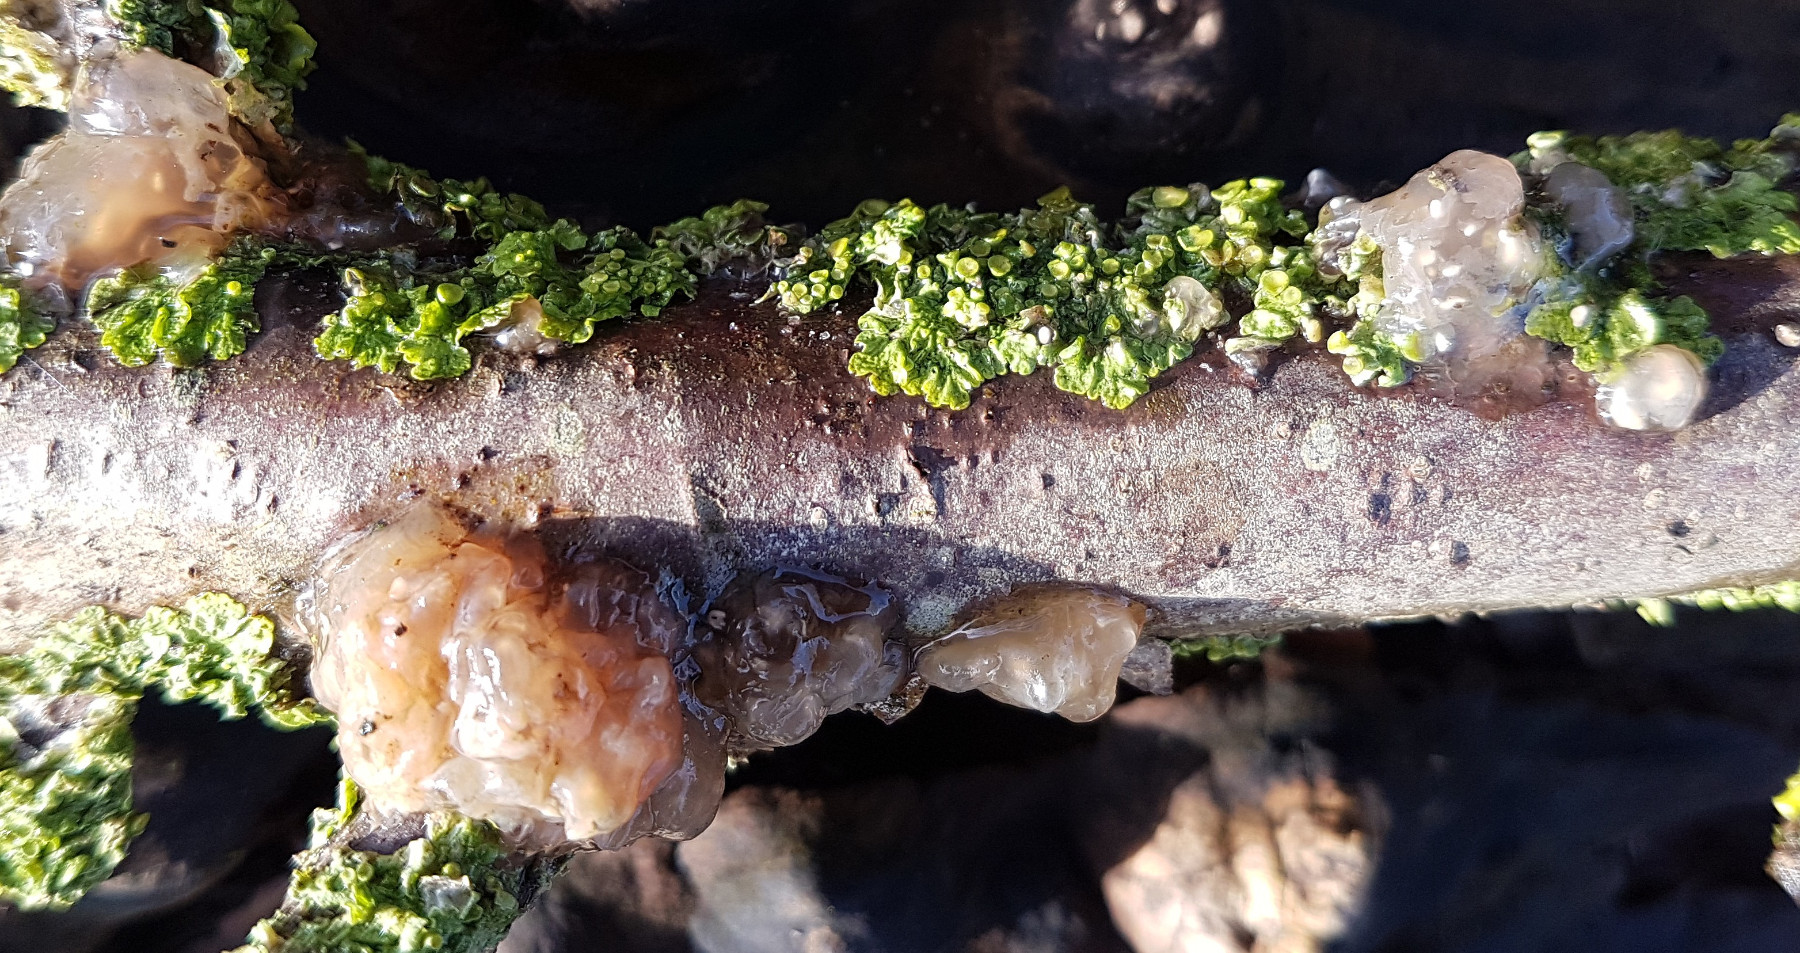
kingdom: Fungi
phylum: Basidiomycota
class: Agaricomycetes
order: Auriculariales
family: Hyaloriaceae
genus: Myxarium
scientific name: Myxarium nucleatum
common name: klar bævretop
